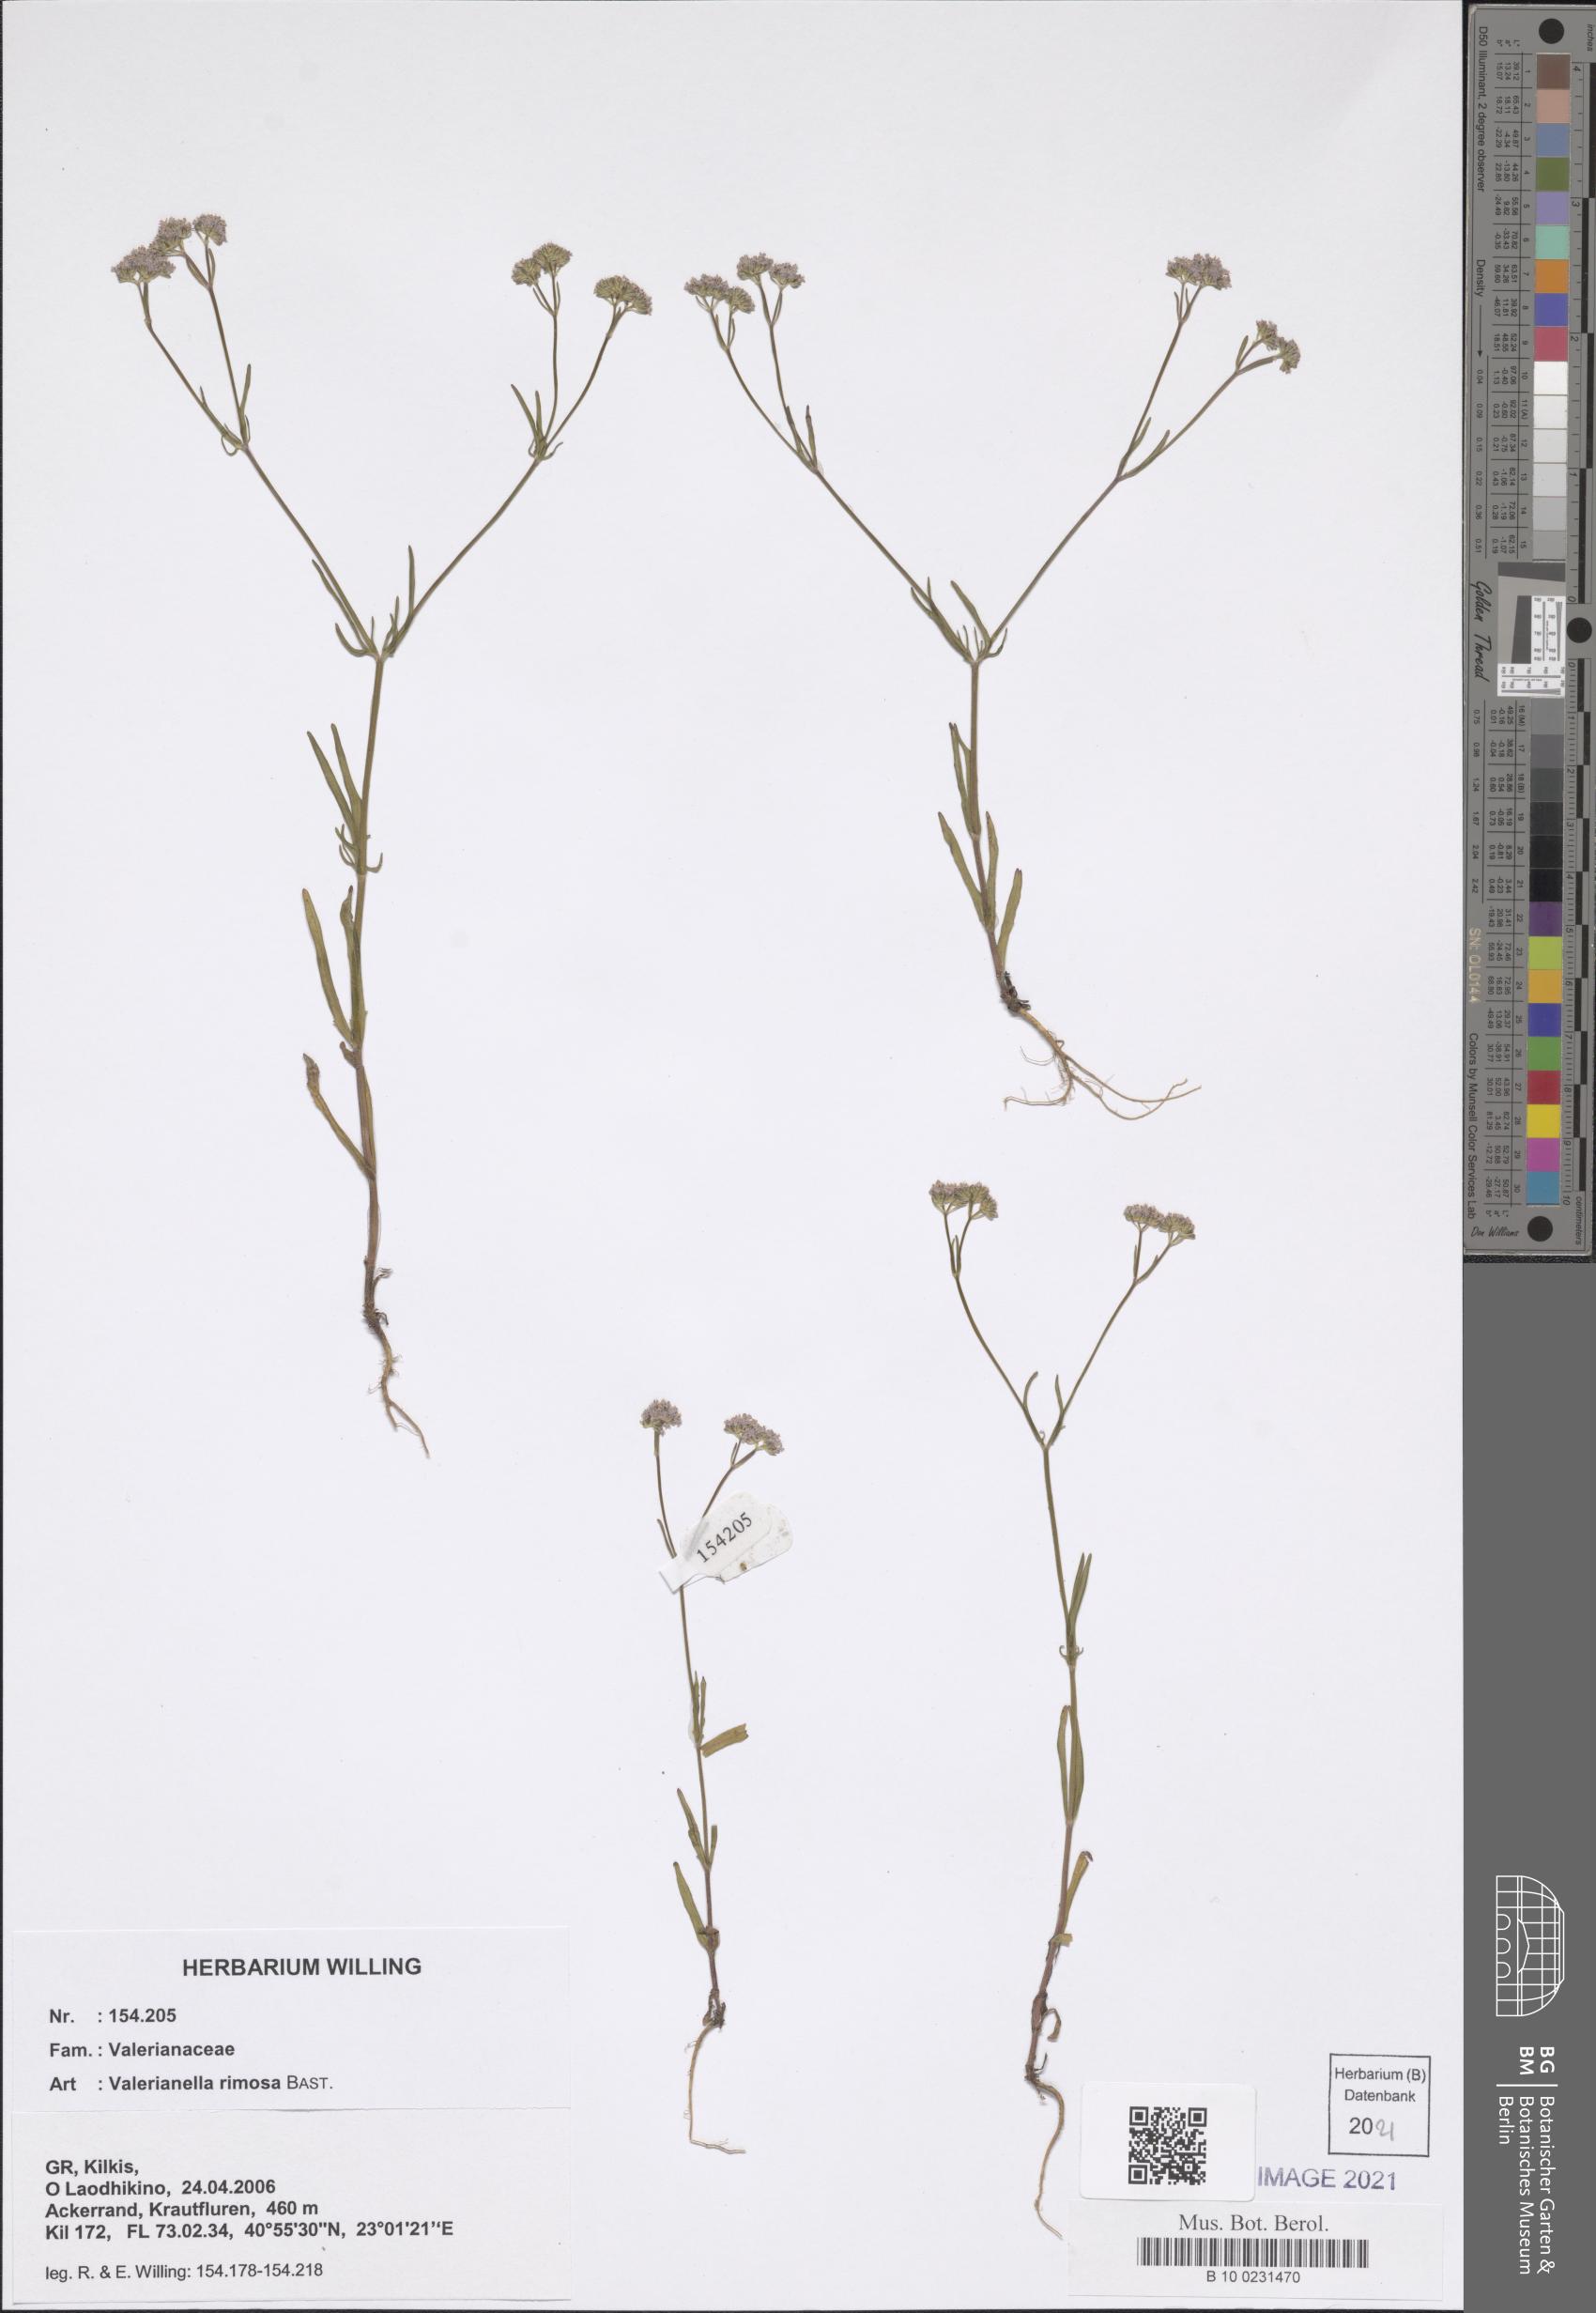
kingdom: Plantae
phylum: Tracheophyta
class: Magnoliopsida
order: Dipsacales
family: Caprifoliaceae
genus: Valerianella
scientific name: Valerianella rimosa
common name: Broad-fruited cornsalad
